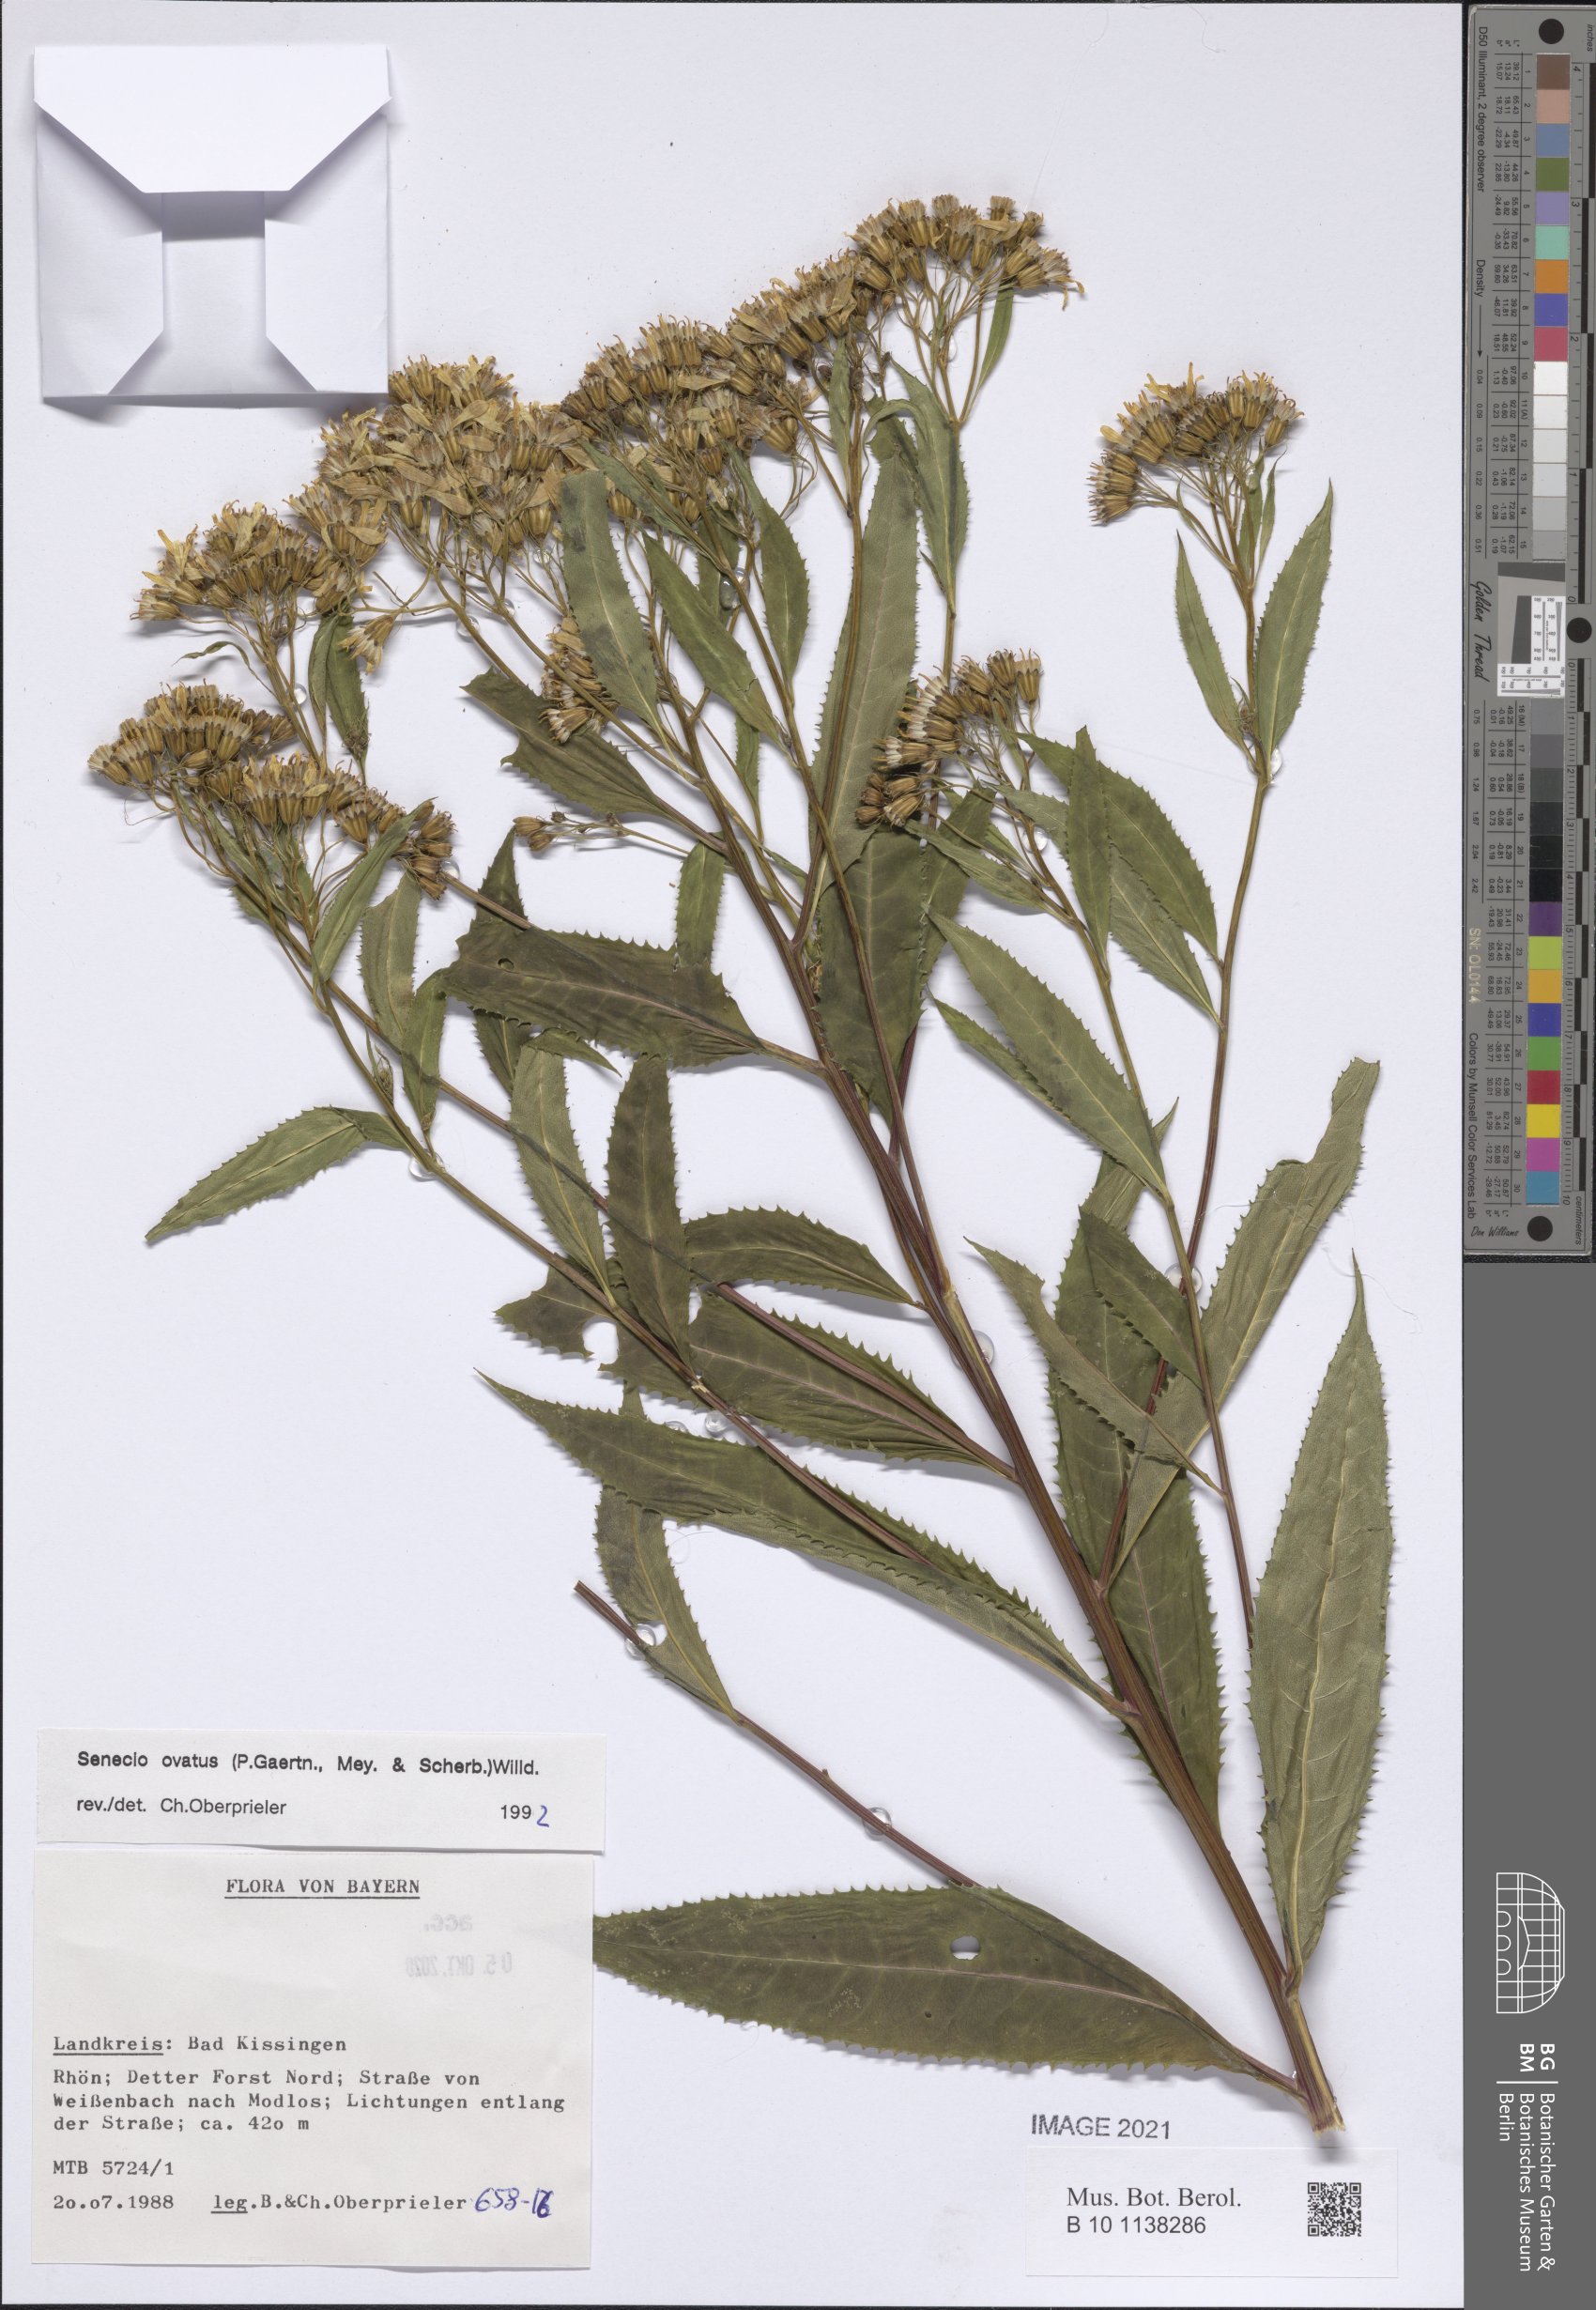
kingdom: Plantae
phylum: Tracheophyta
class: Magnoliopsida
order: Asterales
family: Asteraceae
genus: Senecio
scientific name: Senecio ovatus
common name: Wood ragwort
